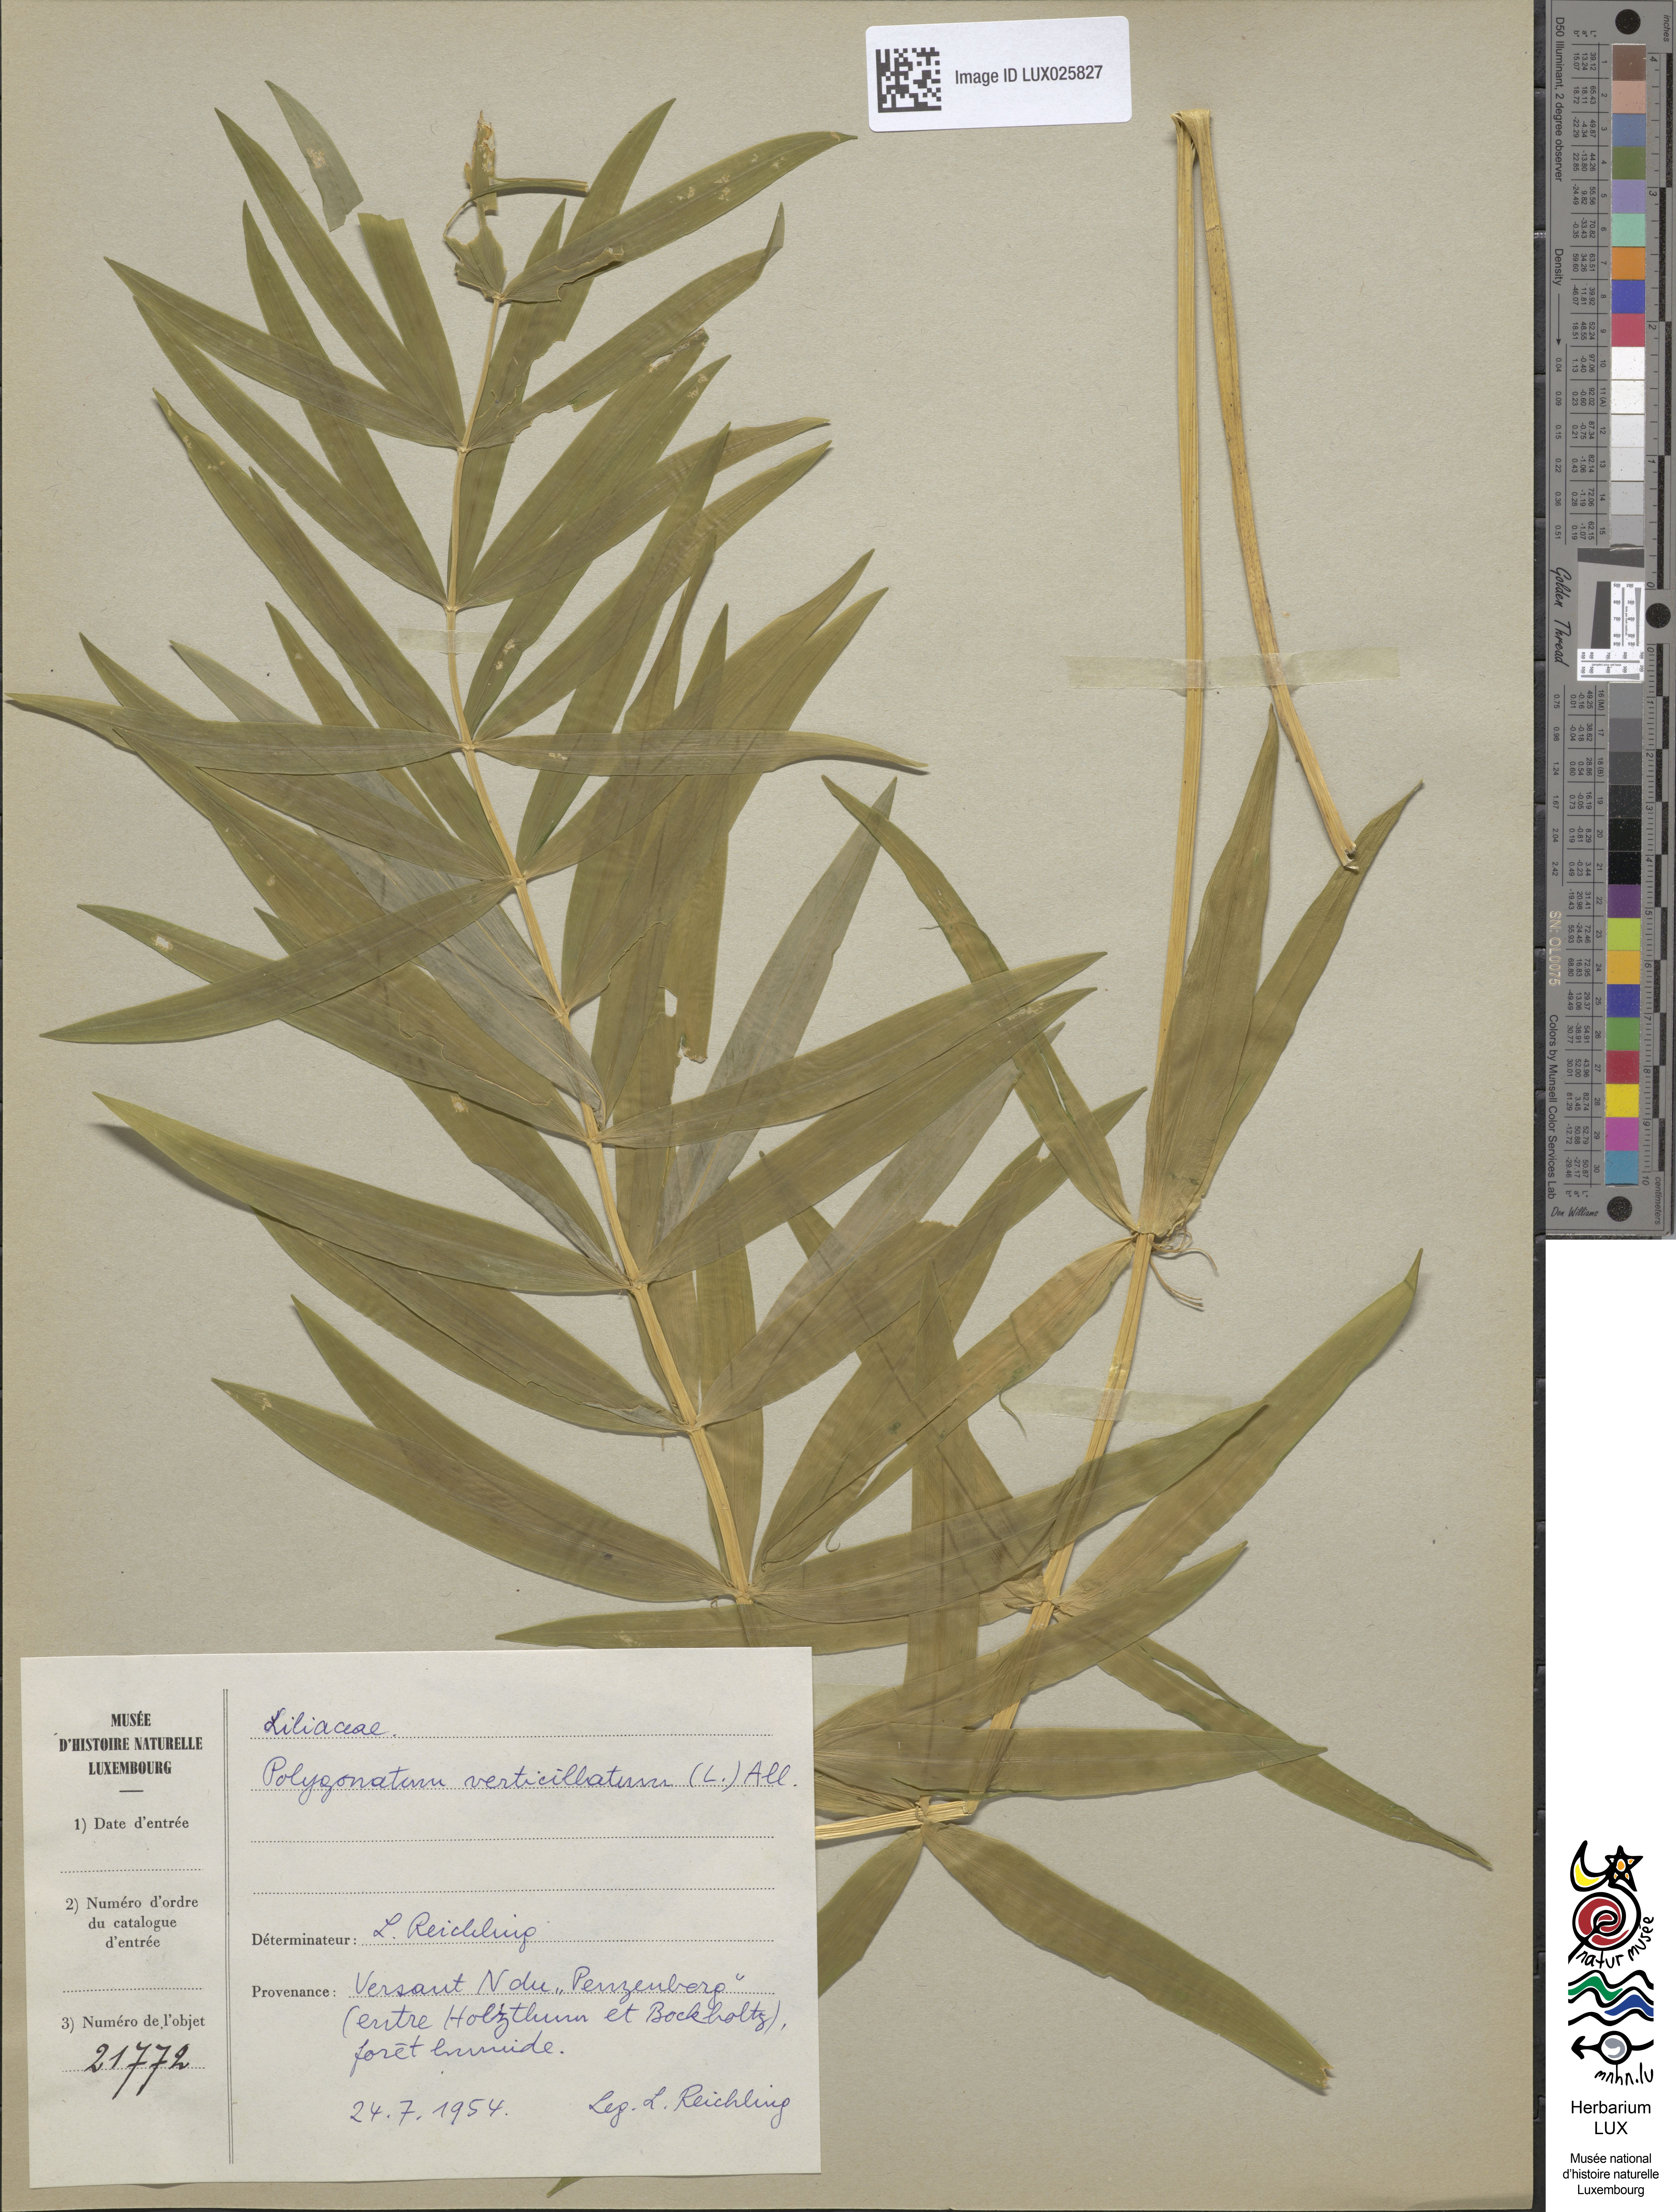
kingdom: Plantae
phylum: Tracheophyta
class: Liliopsida
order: Asparagales
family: Asparagaceae
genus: Polygonatum
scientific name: Polygonatum verticillatum
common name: Whorled solomon's-seal
